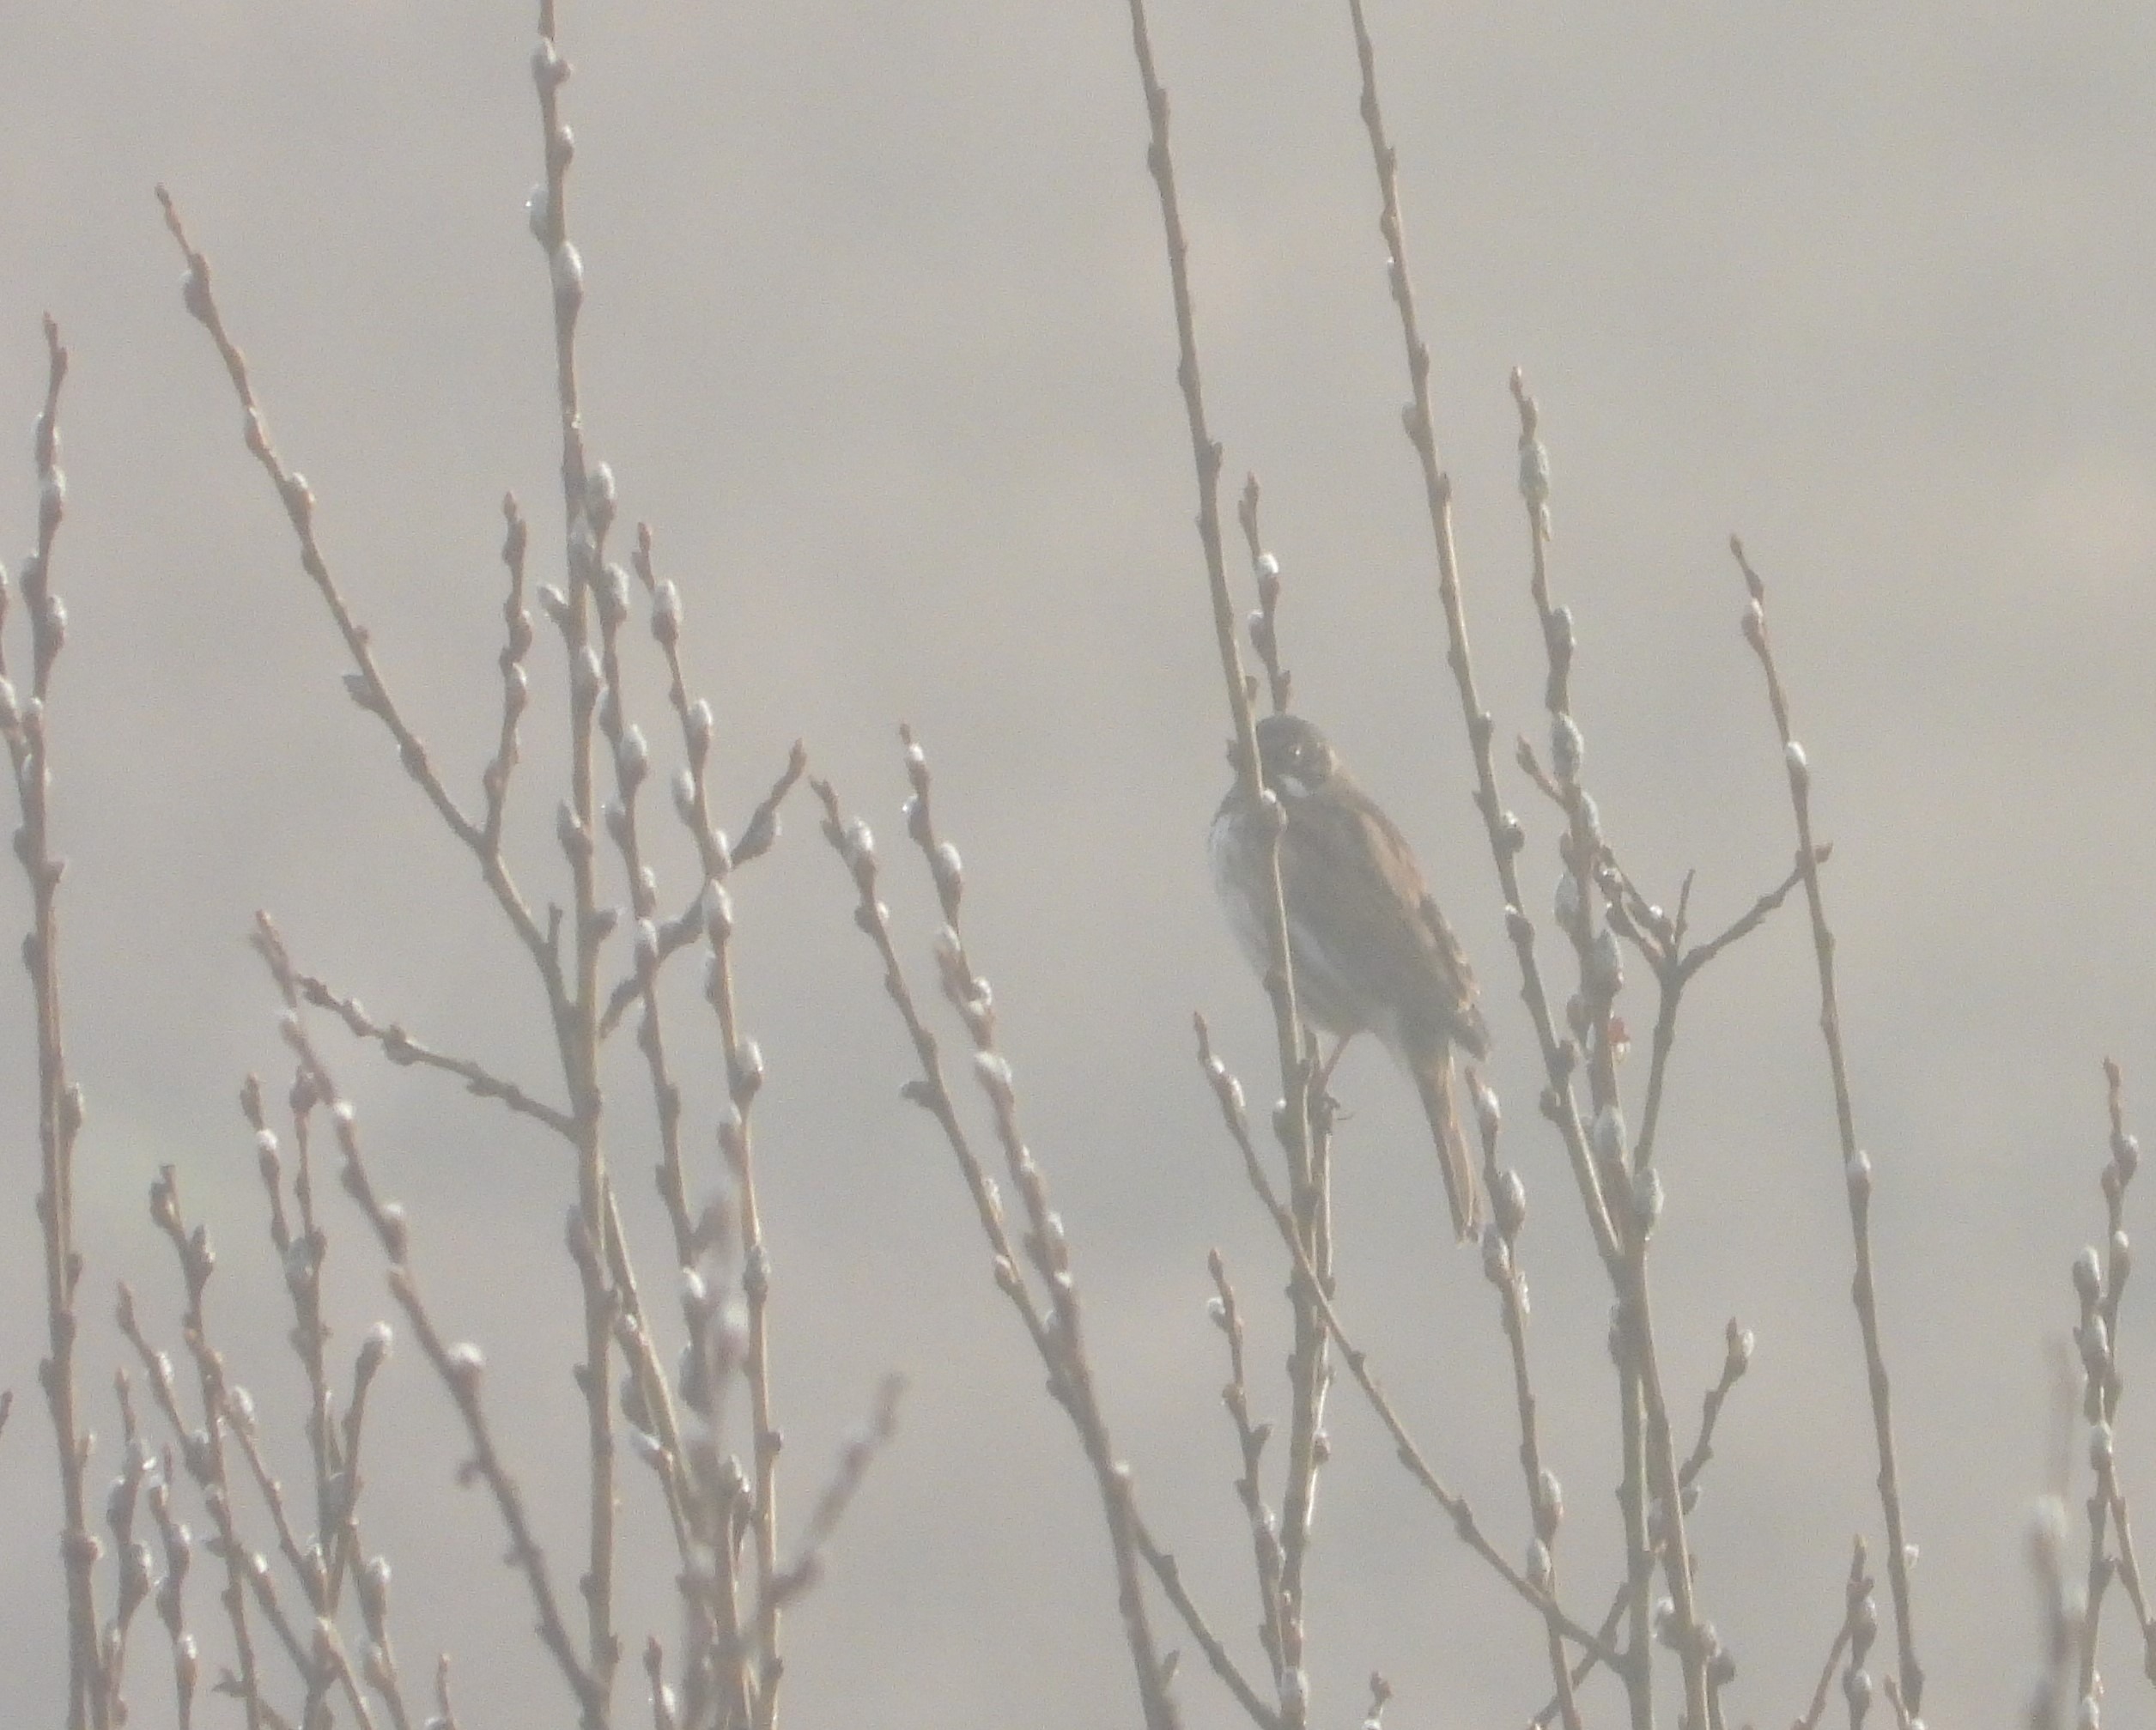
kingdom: Animalia
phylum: Chordata
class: Aves
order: Passeriformes
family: Emberizidae
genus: Emberiza
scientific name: Emberiza schoeniclus
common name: Rørspurv
